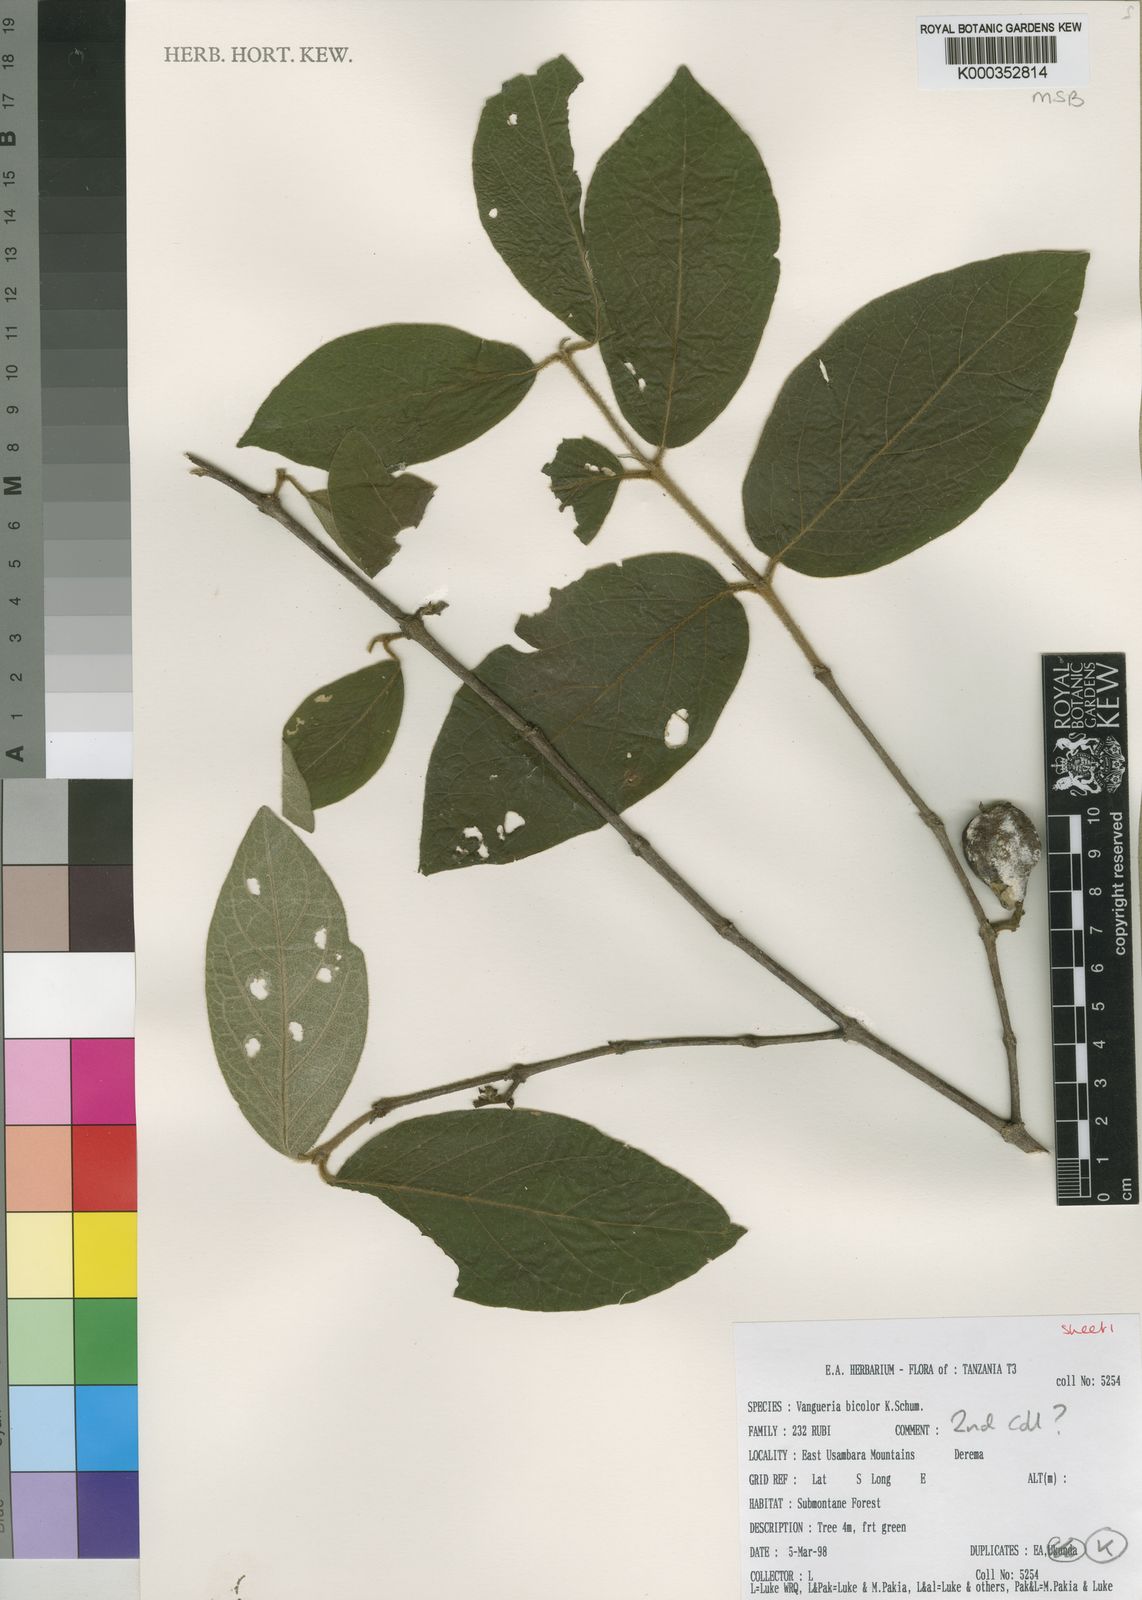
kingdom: Plantae
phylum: Tracheophyta
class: Magnoliopsida
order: Gentianales
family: Rubiaceae
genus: Vangueria
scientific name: Vangueria bicolor
